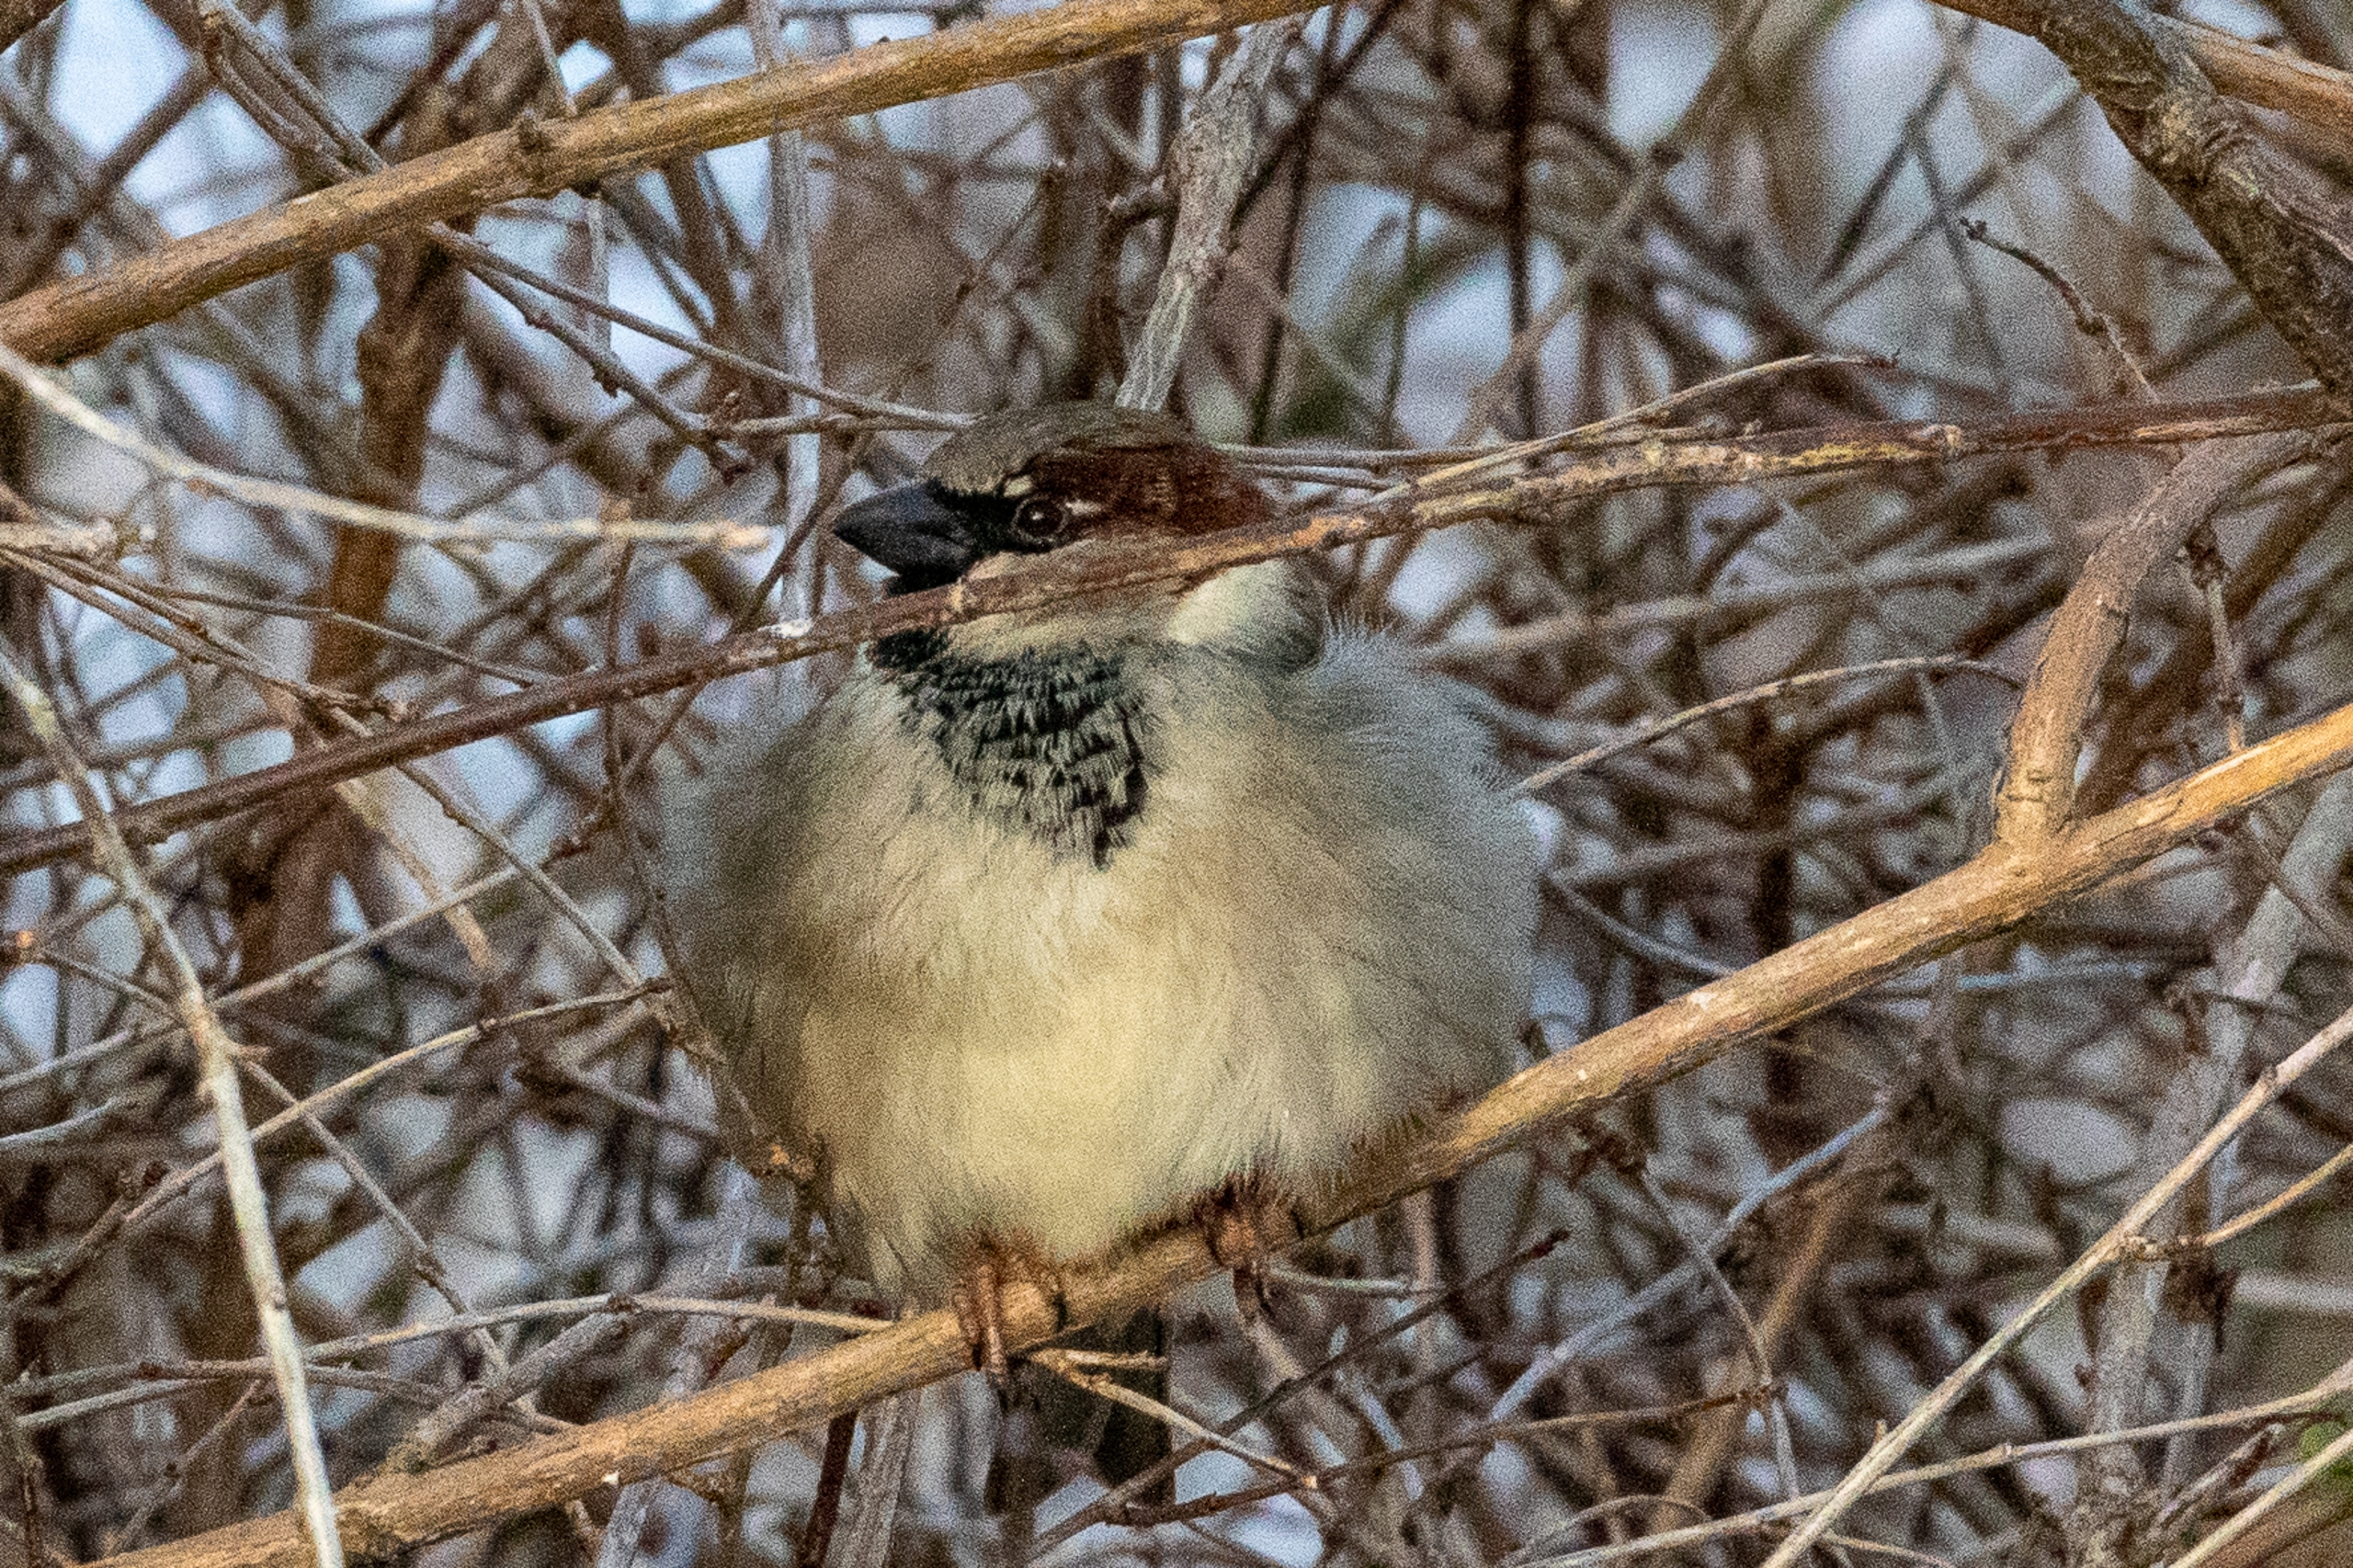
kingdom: Animalia
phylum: Chordata
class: Aves
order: Passeriformes
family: Passeridae
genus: Passer
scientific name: Passer domesticus
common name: Gråspurv
